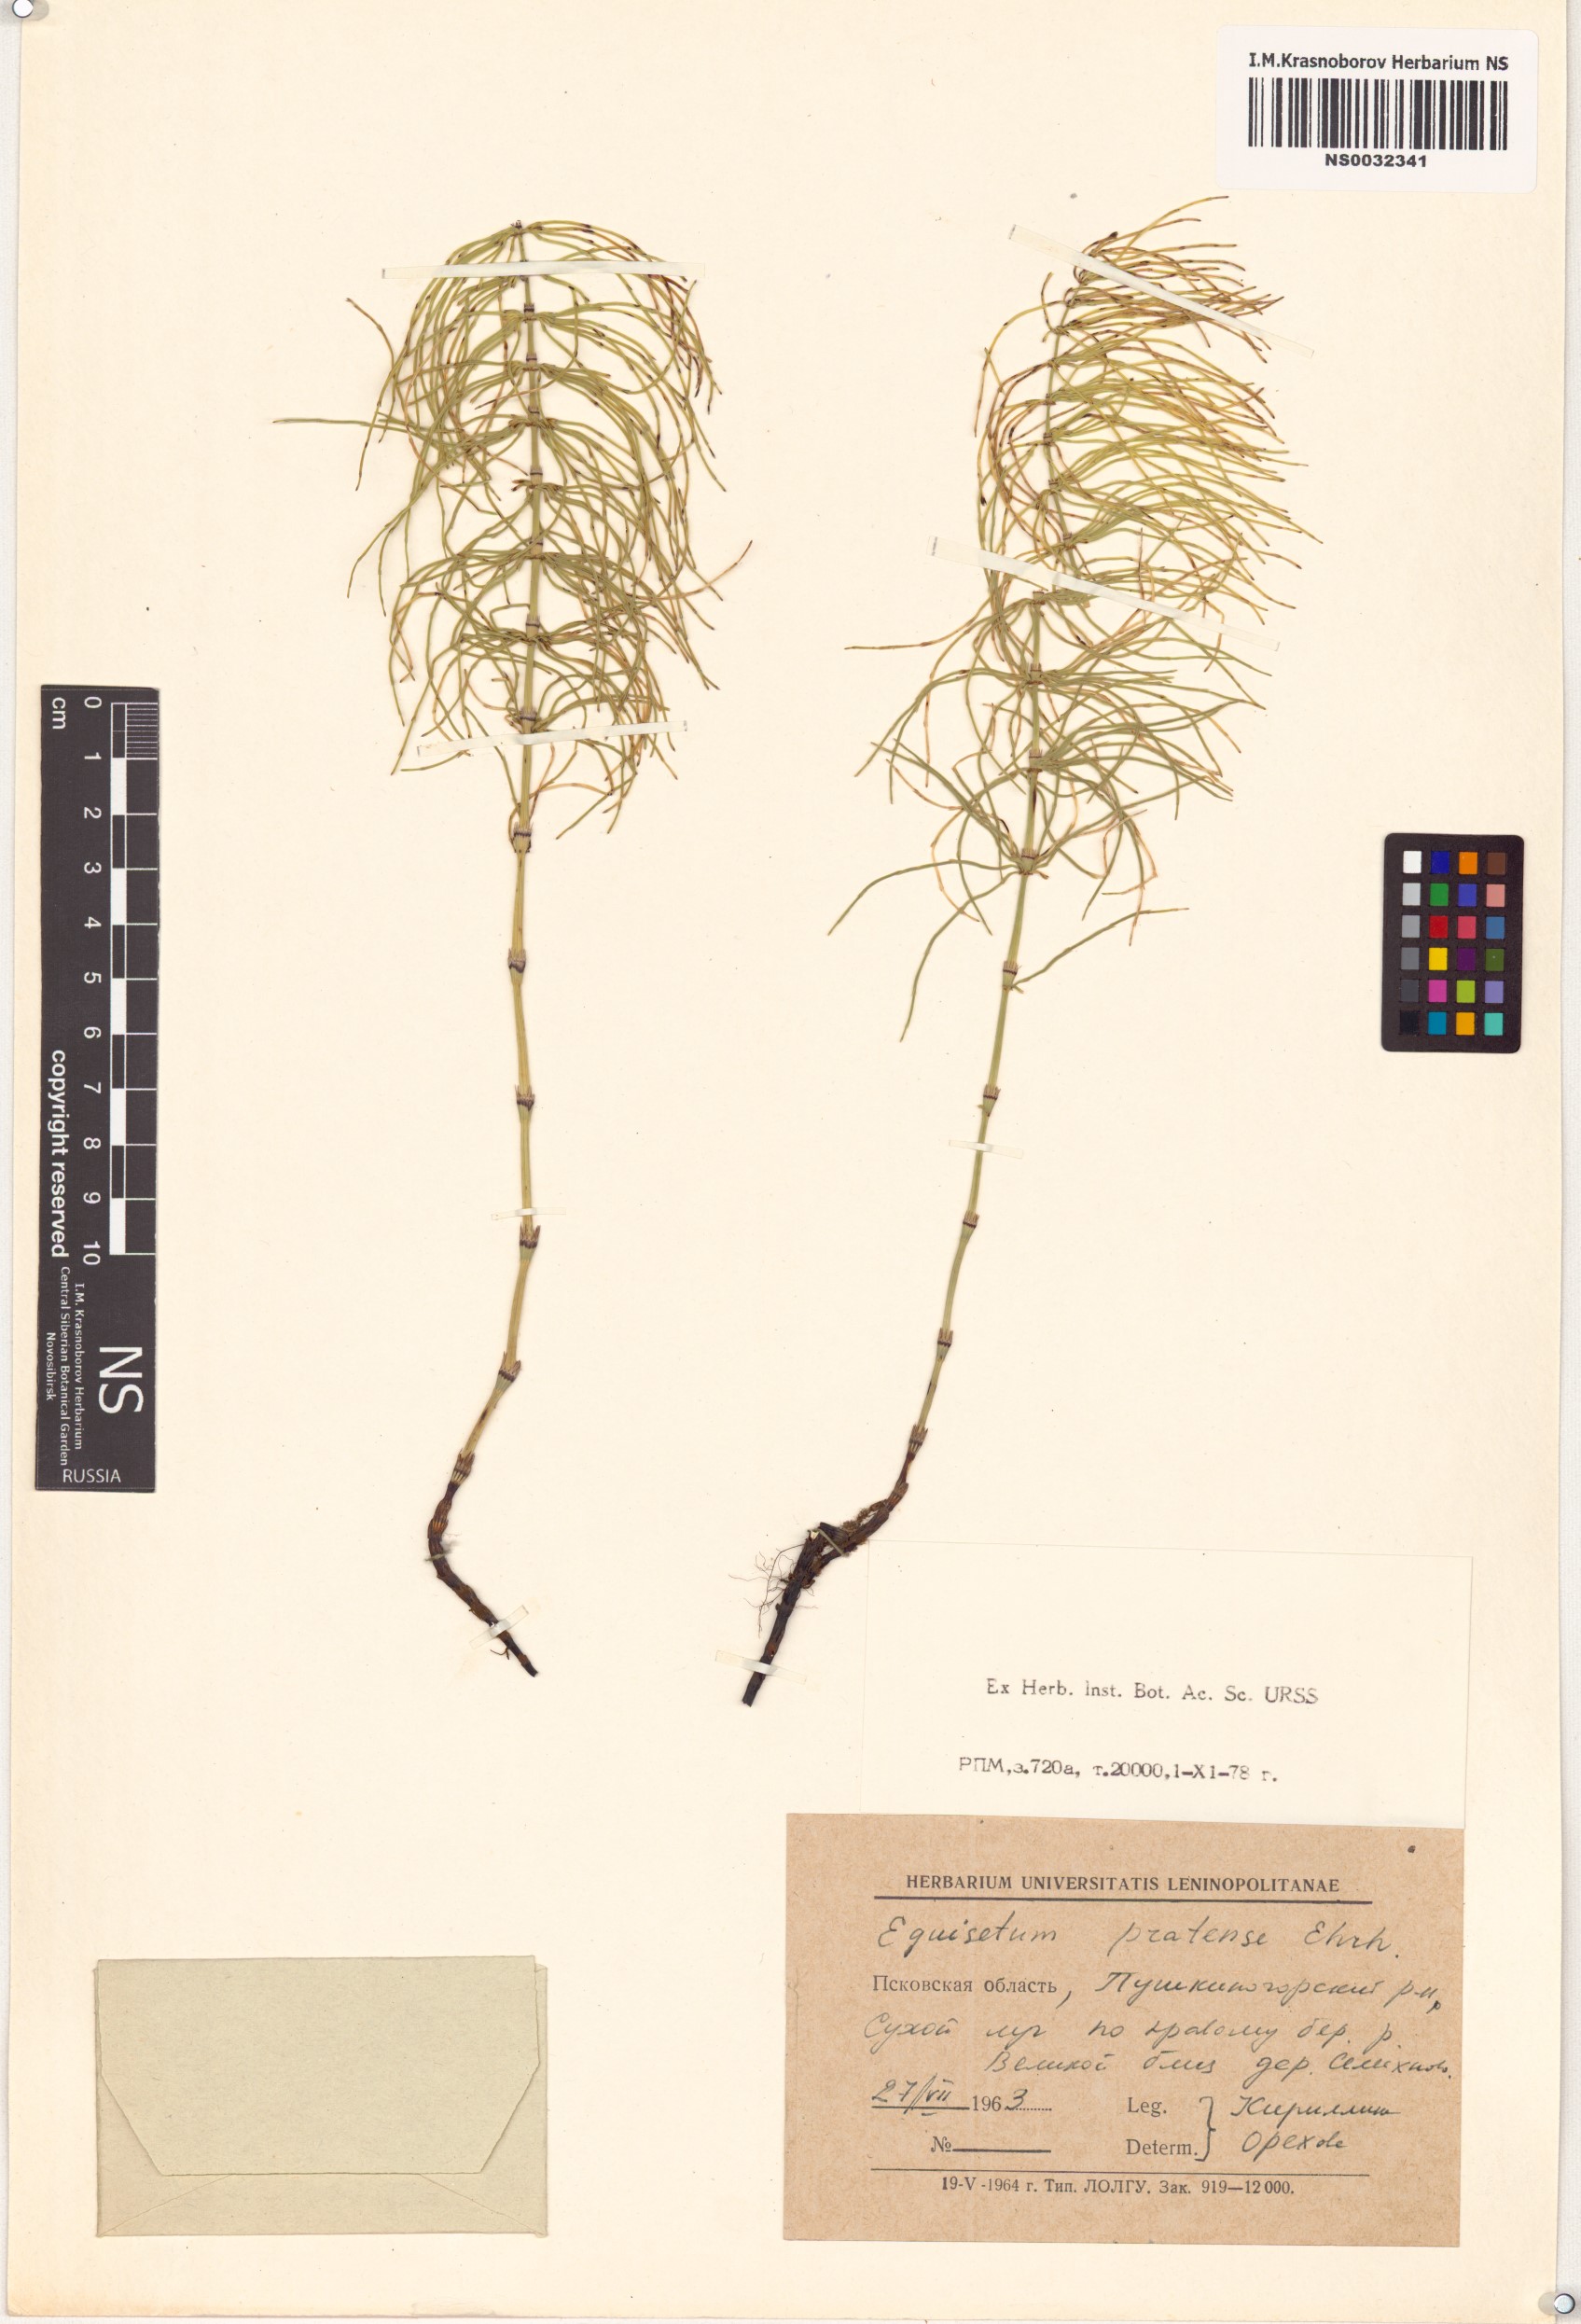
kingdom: Plantae
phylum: Tracheophyta
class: Polypodiopsida
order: Equisetales
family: Equisetaceae
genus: Equisetum
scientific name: Equisetum pratense
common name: Meadow horsetail
